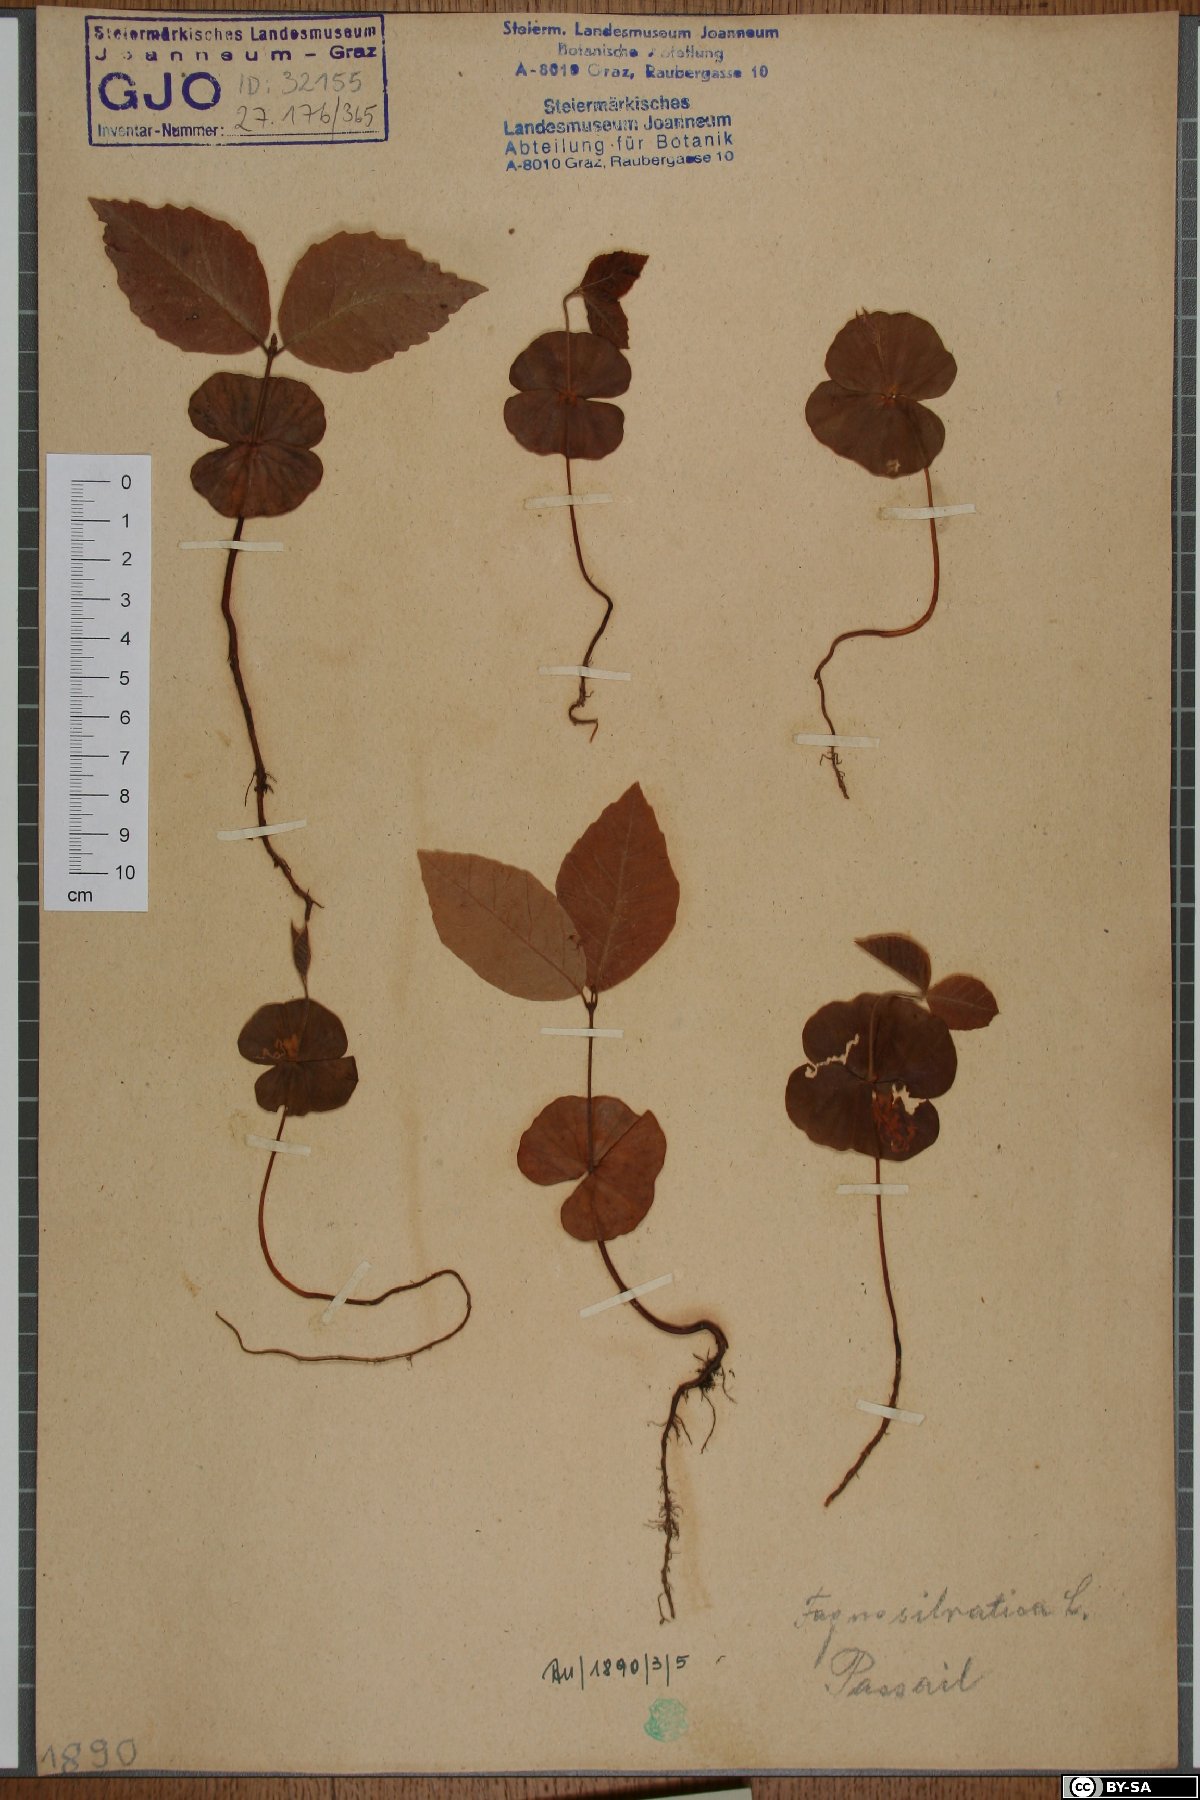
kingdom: Plantae
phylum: Tracheophyta
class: Magnoliopsida
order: Fagales
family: Fagaceae
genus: Fagus
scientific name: Fagus sylvatica
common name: Beech
